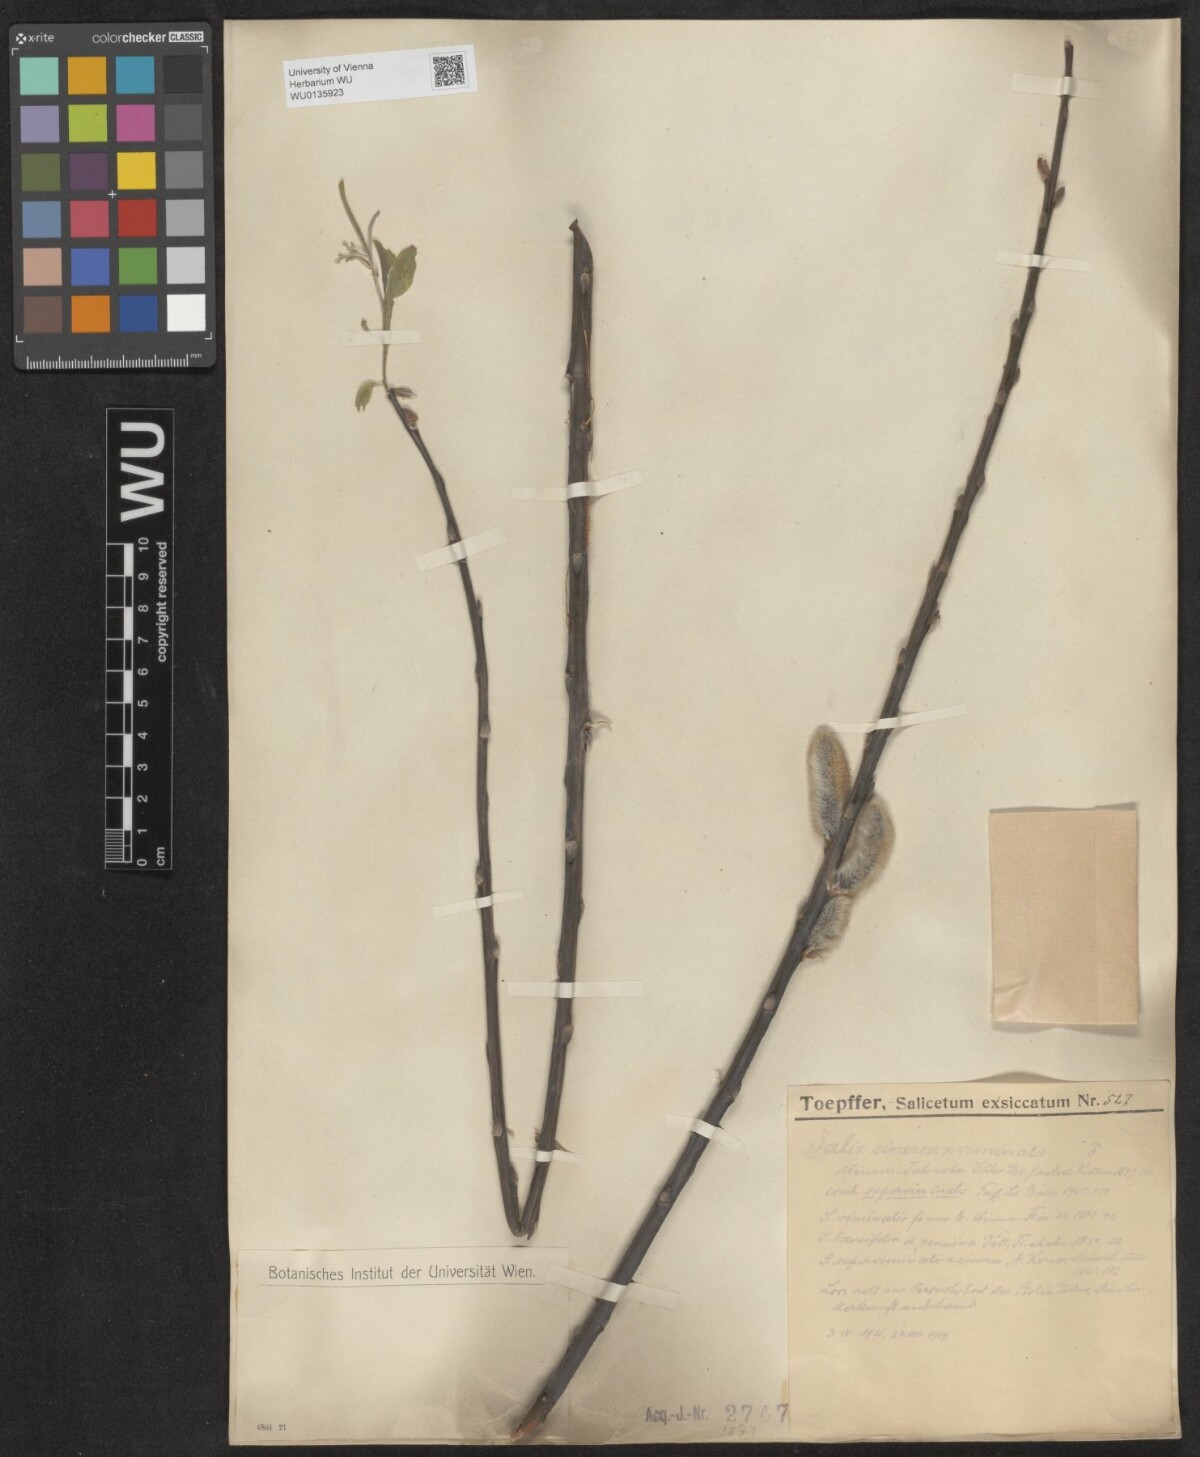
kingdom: Plantae
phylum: Tracheophyta
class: Magnoliopsida
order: Malpighiales
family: Salicaceae
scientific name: Salicaceae
